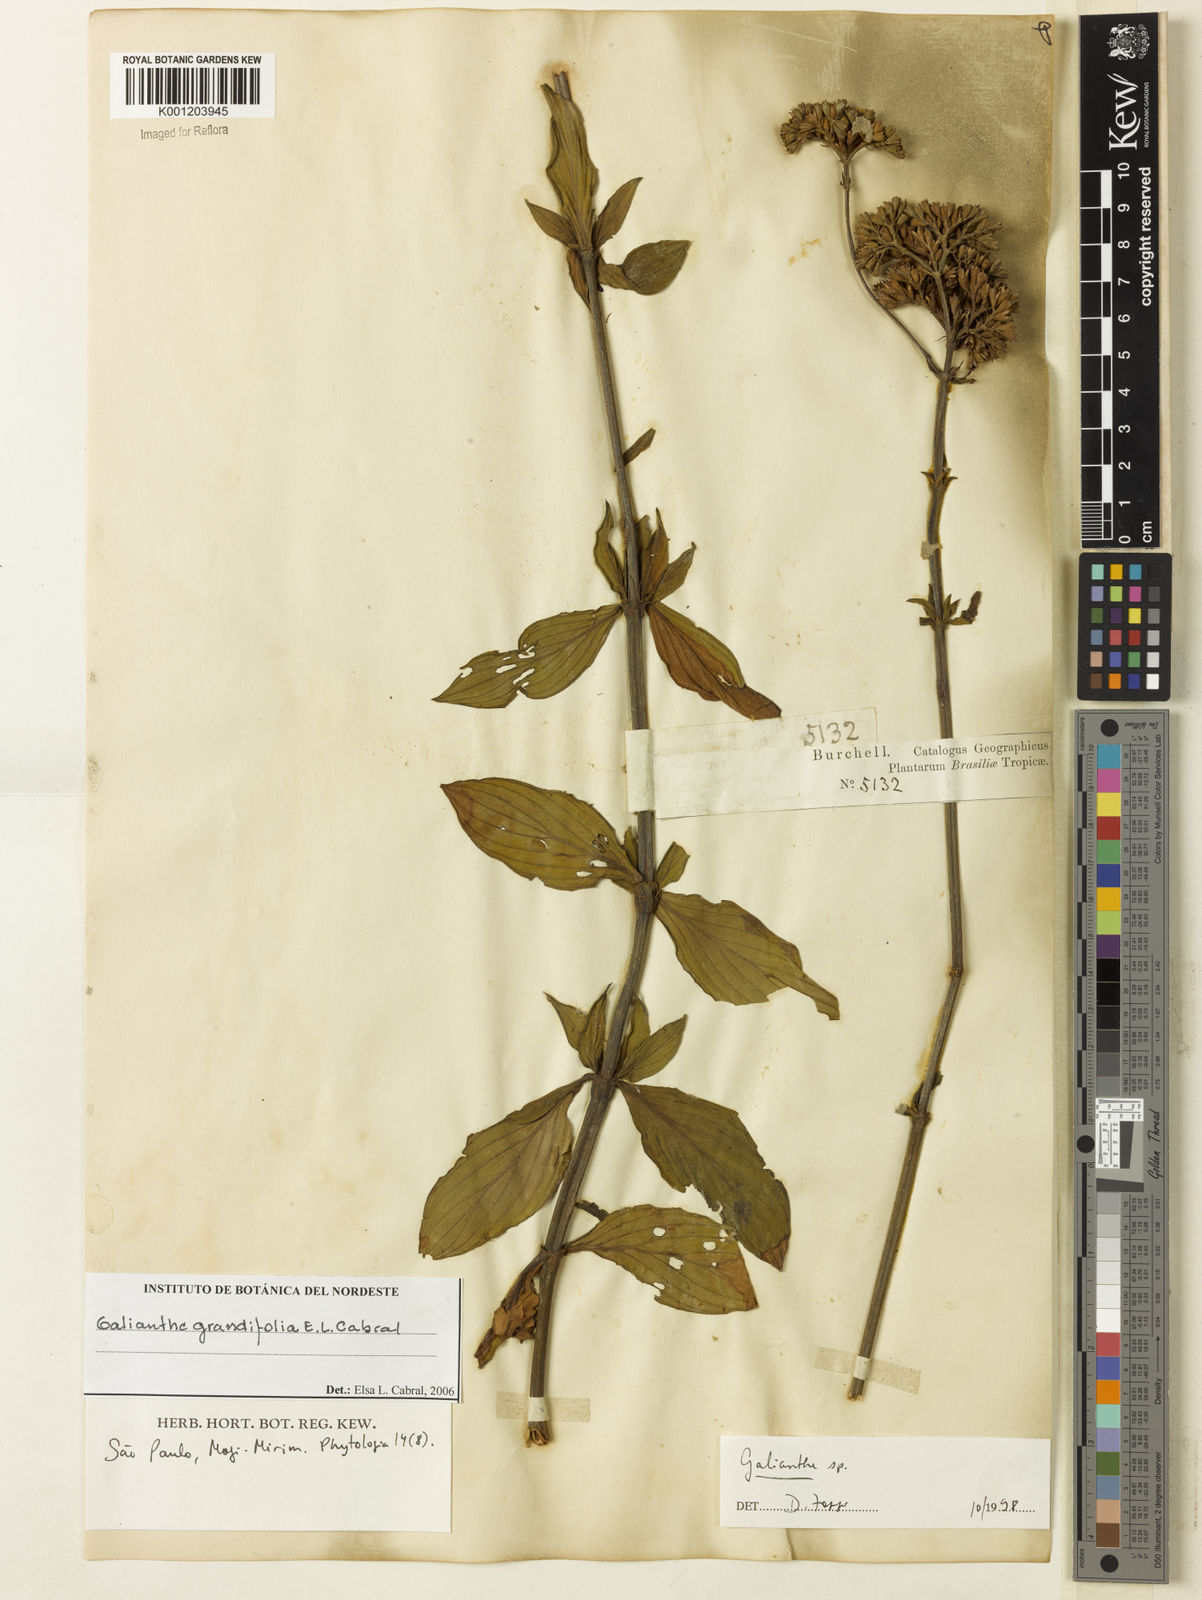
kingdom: Plantae
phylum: Tracheophyta
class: Magnoliopsida
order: Gentianales
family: Rubiaceae
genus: Galianthe
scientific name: Galianthe grandifolia
